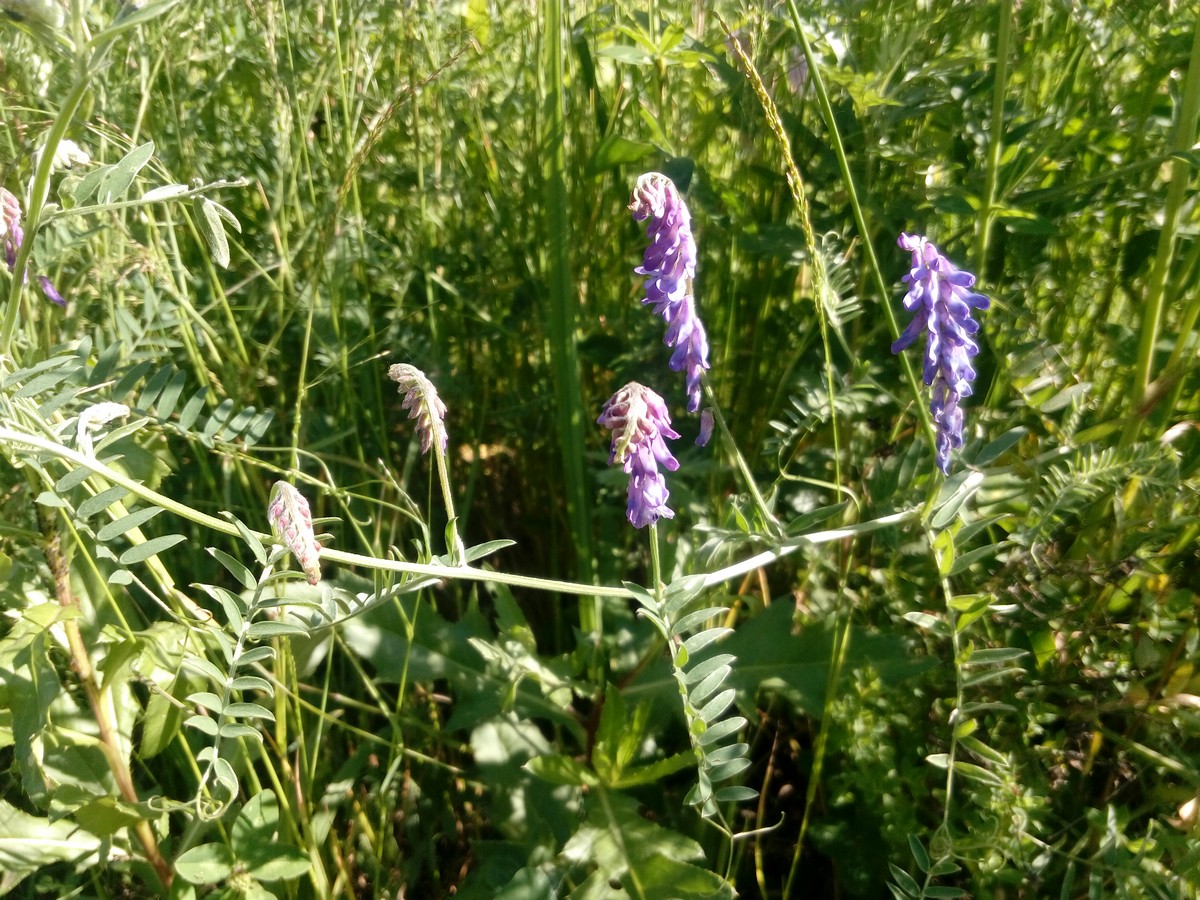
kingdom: Plantae
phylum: Tracheophyta
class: Magnoliopsida
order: Fabales
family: Fabaceae
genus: Vicia
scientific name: Vicia cracca
